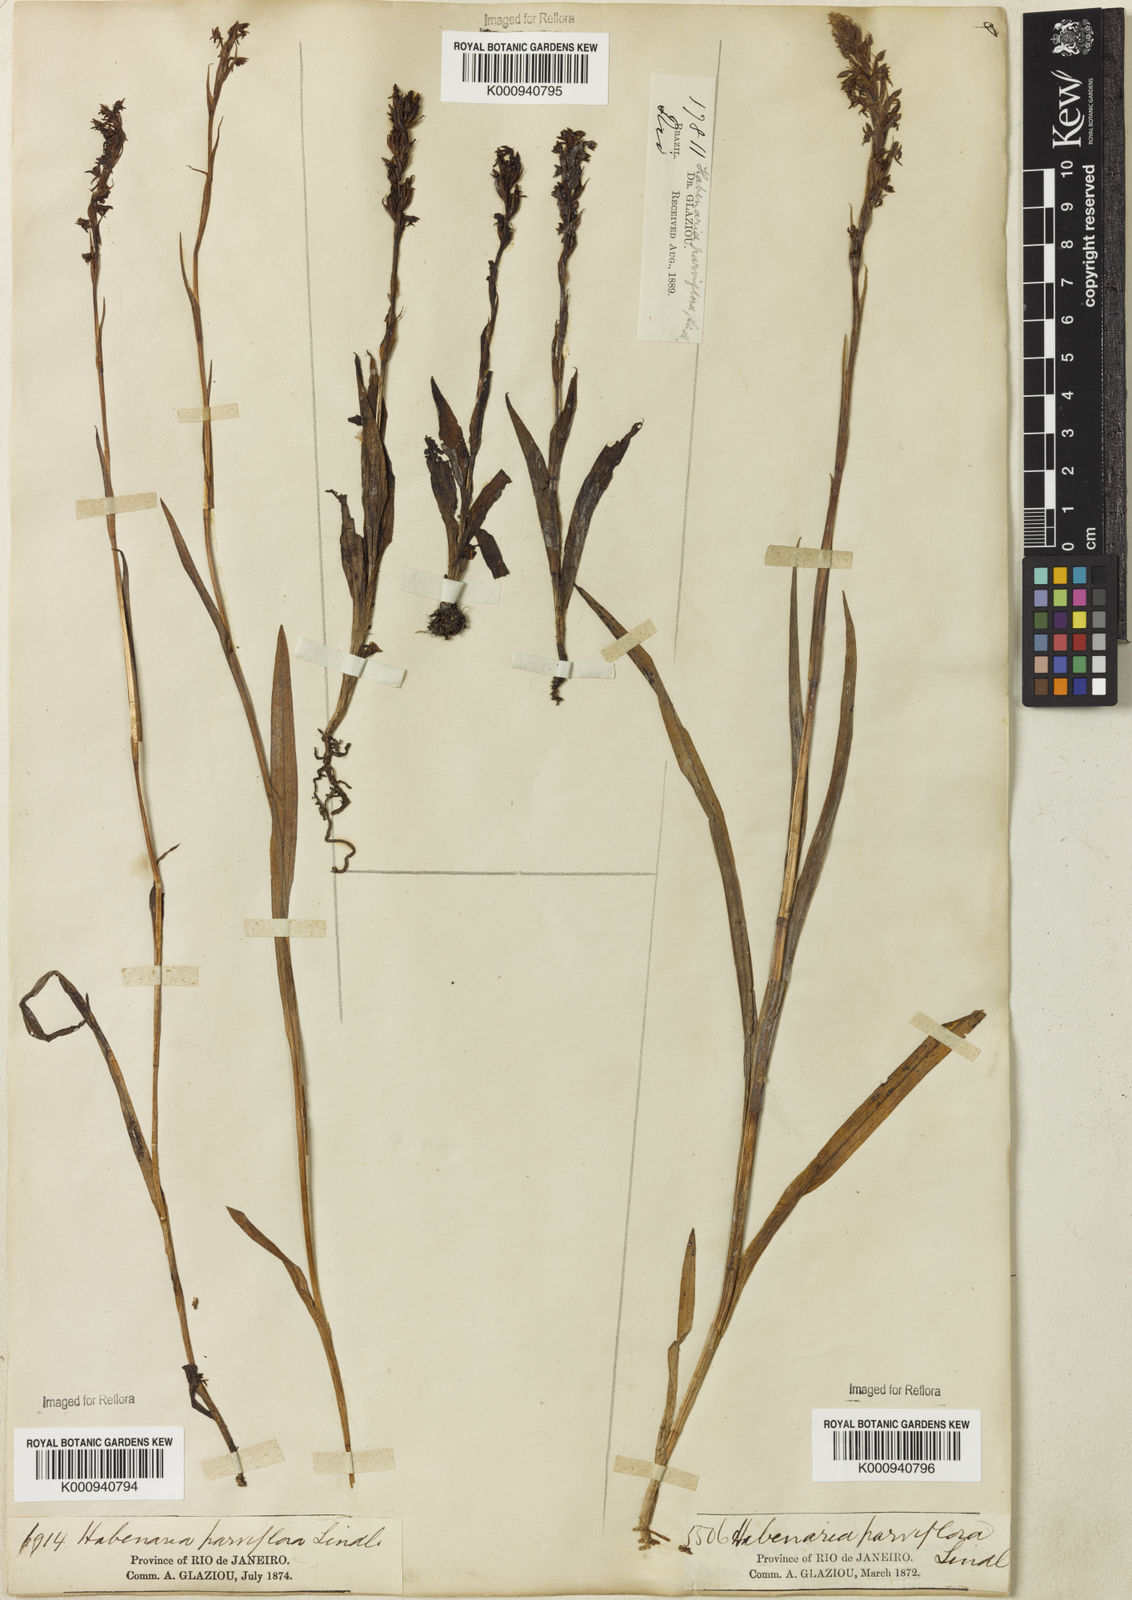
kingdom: Plantae
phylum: Tracheophyta
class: Liliopsida
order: Asparagales
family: Orchidaceae
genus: Habenaria
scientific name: Habenaria parviflora
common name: Small flowered habenaria
